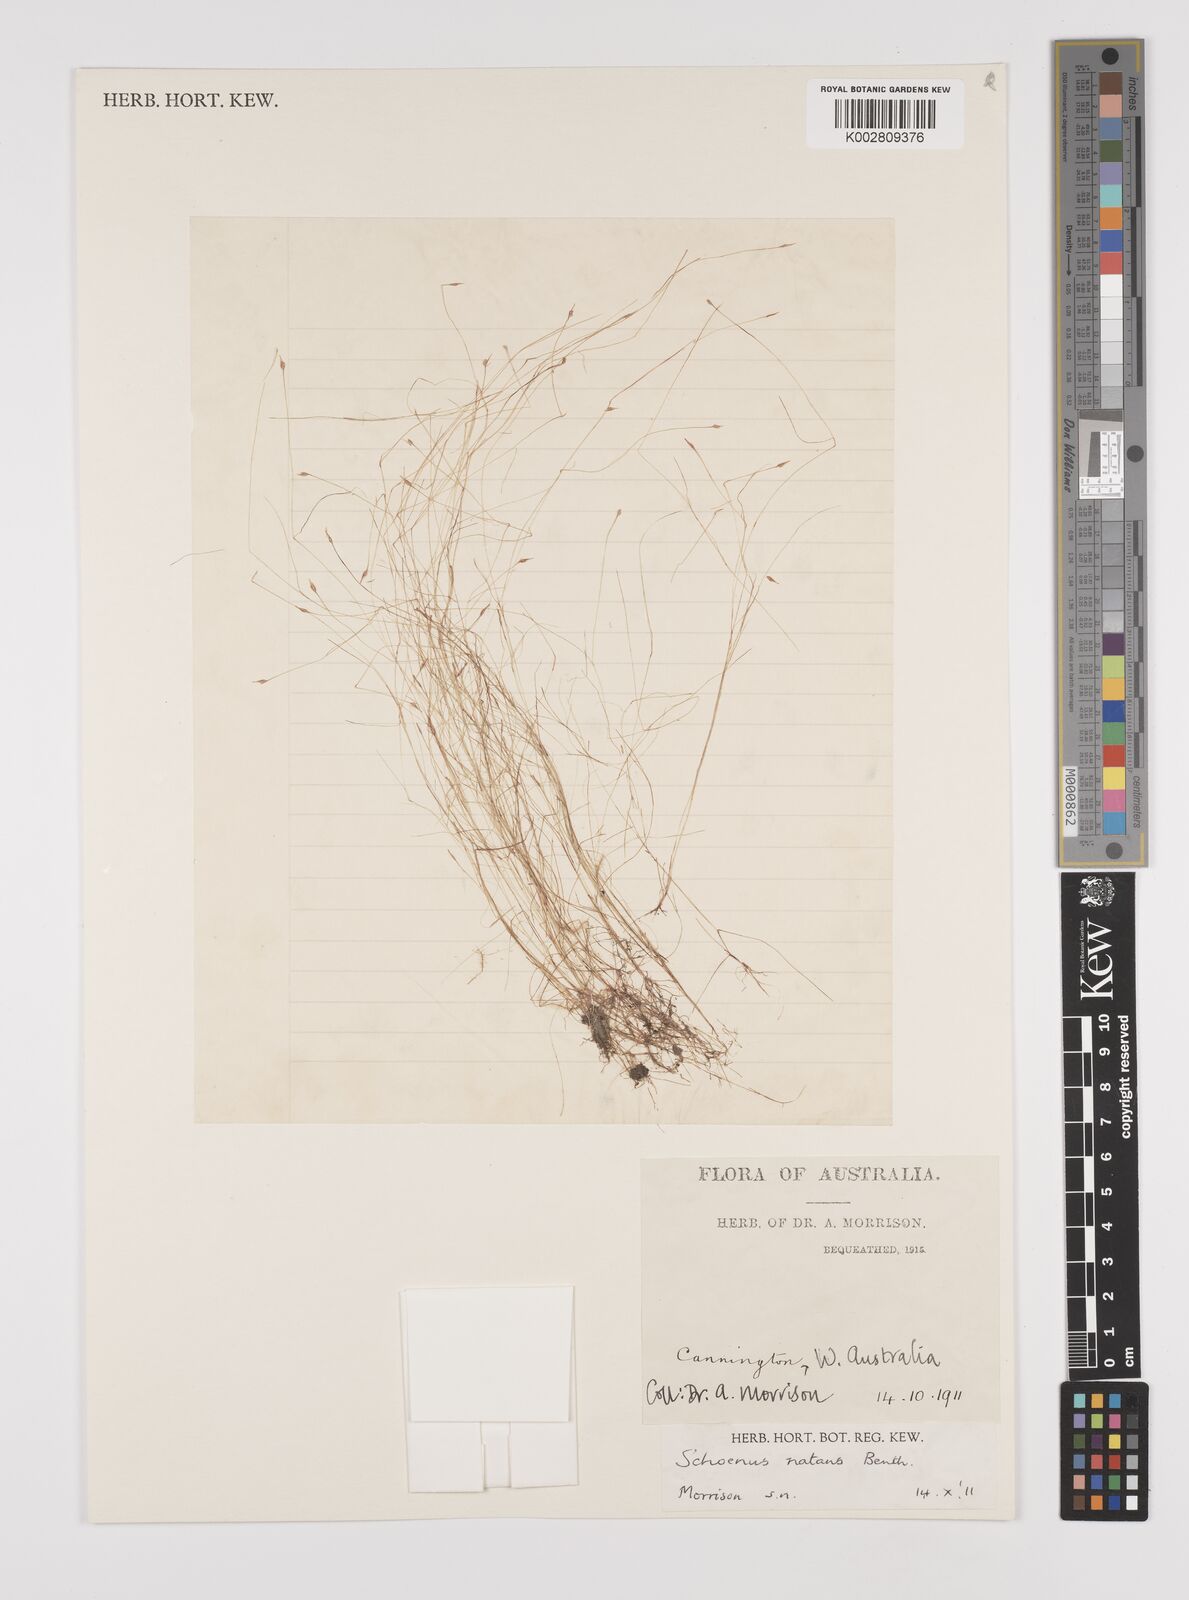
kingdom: Plantae
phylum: Tracheophyta
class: Liliopsida
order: Poales
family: Cyperaceae
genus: Schoenus
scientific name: Schoenus natans
